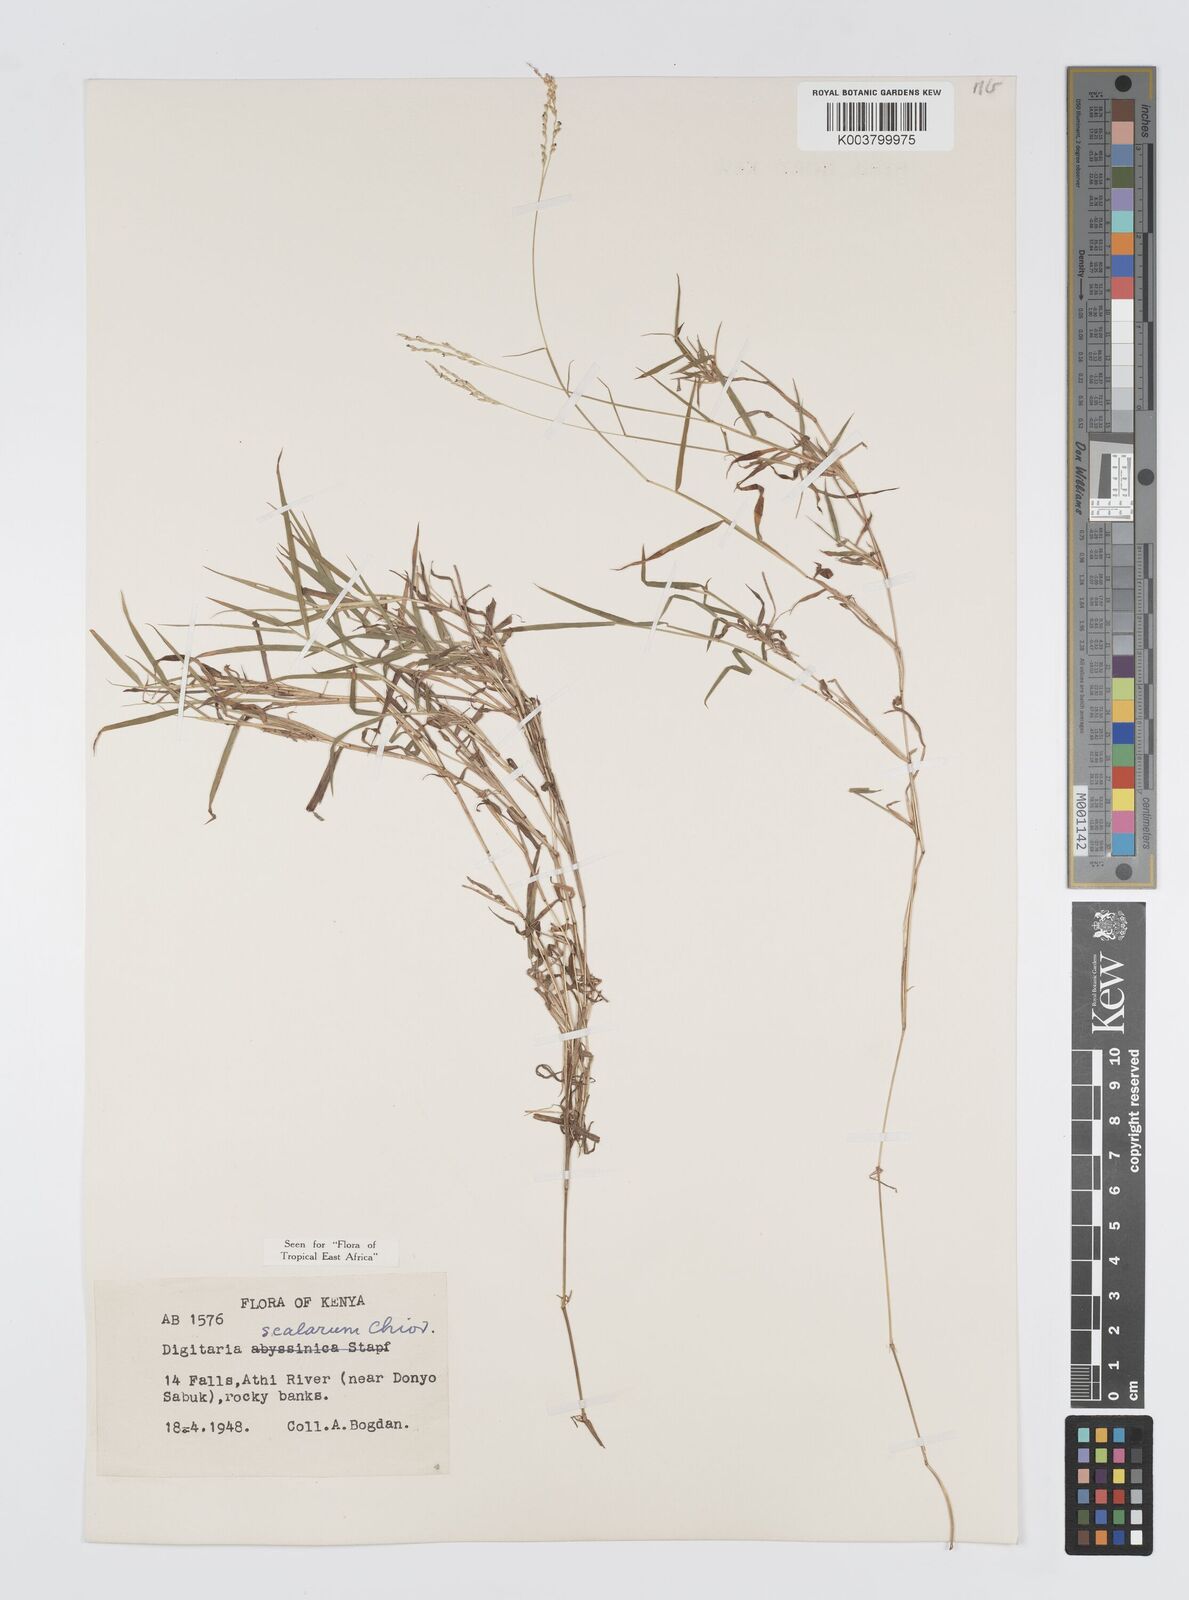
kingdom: Plantae
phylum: Tracheophyta
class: Liliopsida
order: Poales
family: Poaceae
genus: Digitaria
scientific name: Digitaria abyssinica
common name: African couchgrass
